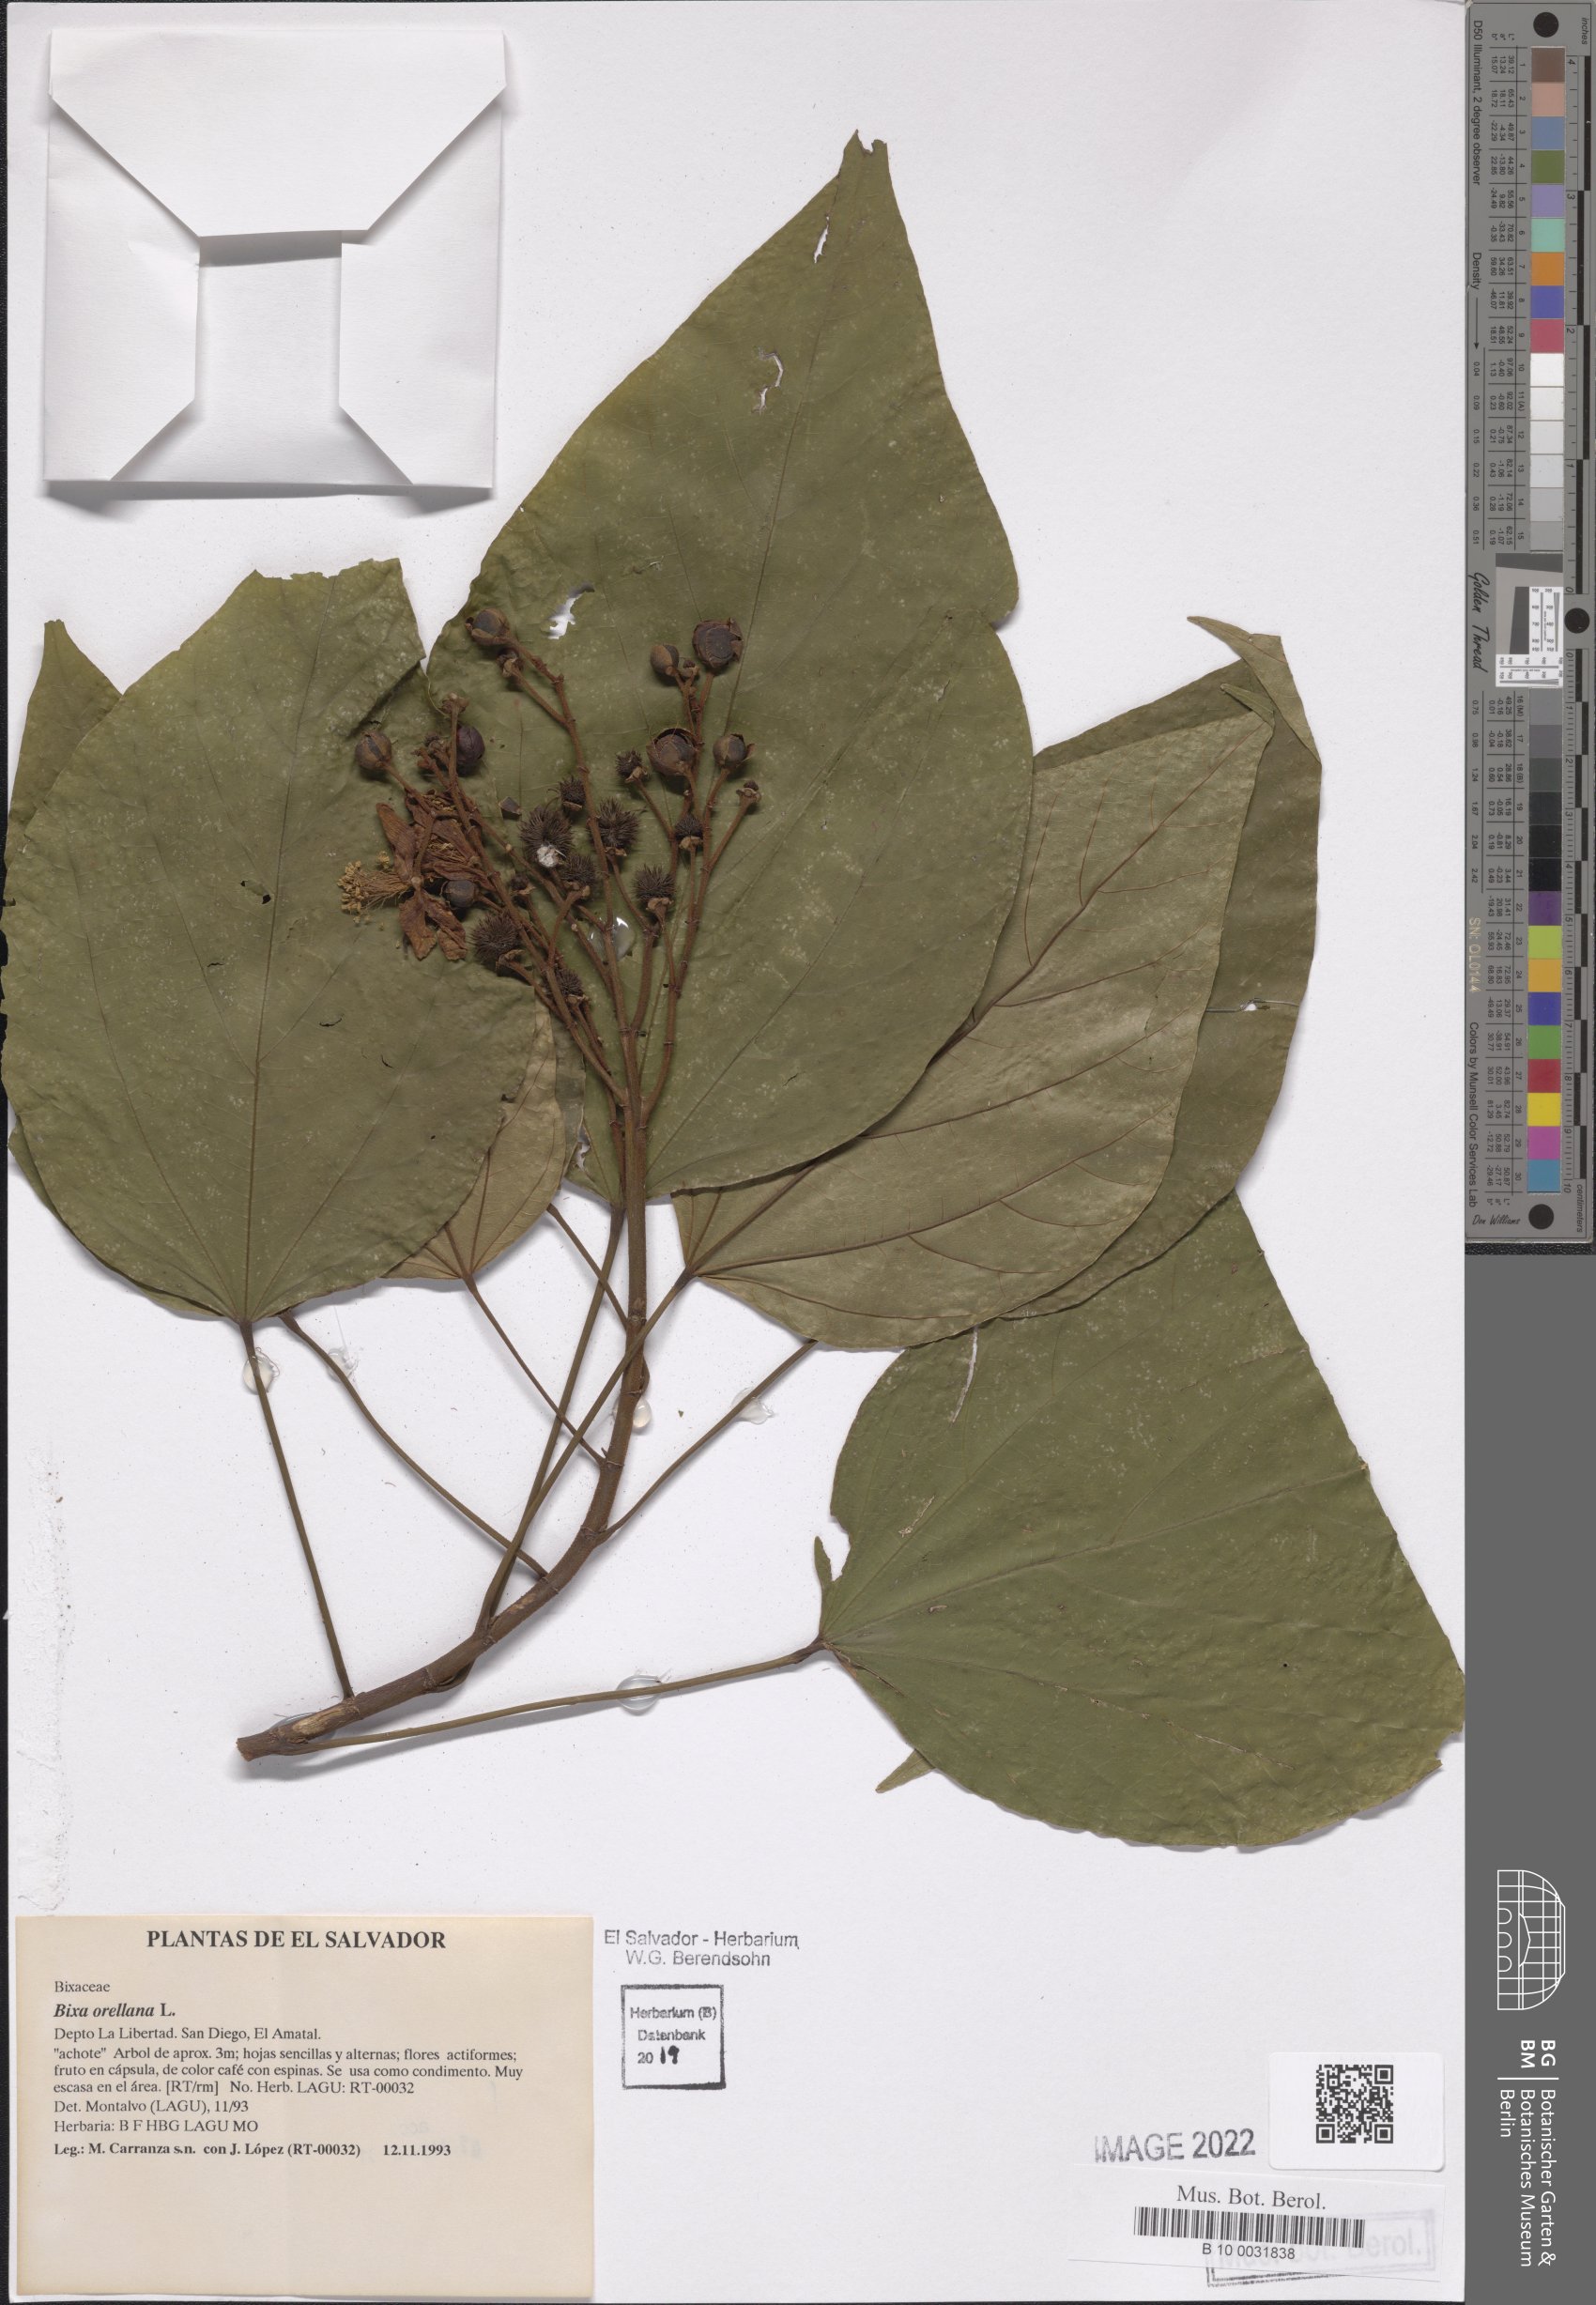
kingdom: Plantae
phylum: Tracheophyta
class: Magnoliopsida
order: Malvales
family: Bixaceae
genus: Bixa
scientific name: Bixa orellana
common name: Lipsticktree
